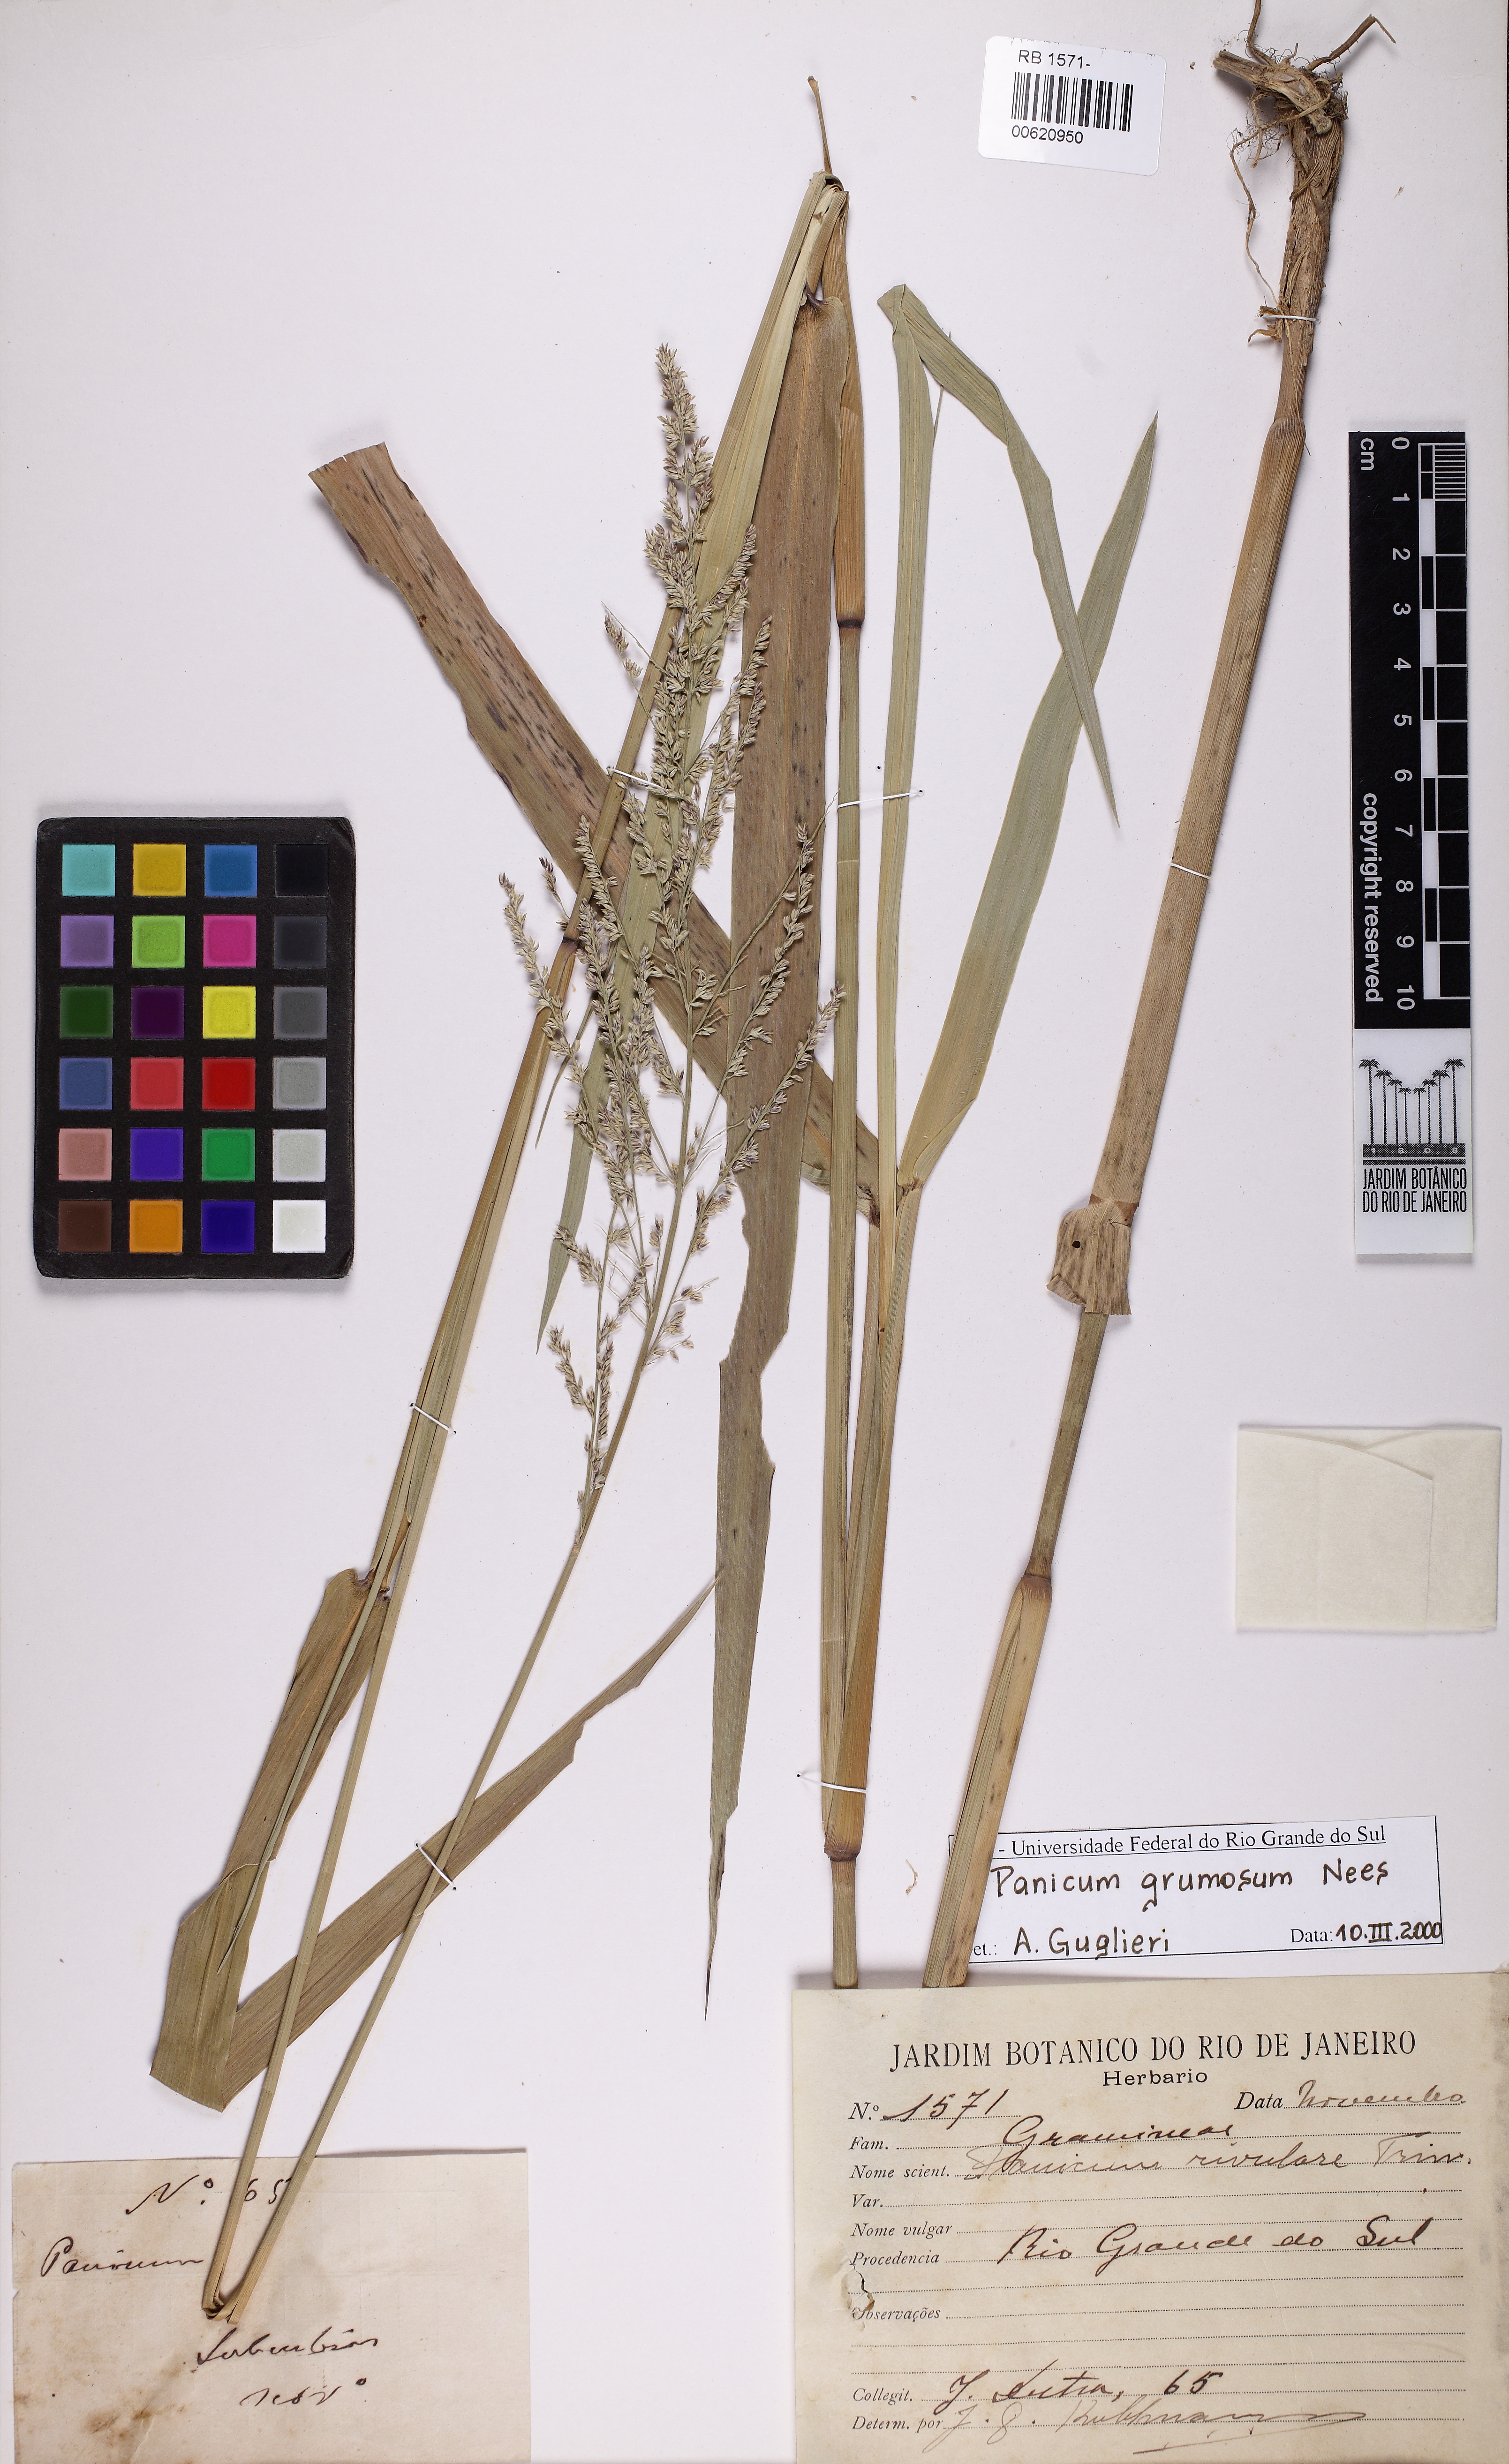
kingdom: Plantae
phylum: Tracheophyta
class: Liliopsida
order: Poales
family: Poaceae
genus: Hymenachne
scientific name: Hymenachne grumosa
